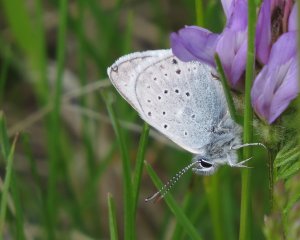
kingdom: Animalia
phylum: Arthropoda
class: Insecta
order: Lepidoptera
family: Lycaenidae
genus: Plebejus
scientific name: Plebejus saepiolus
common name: Greenish Blue
